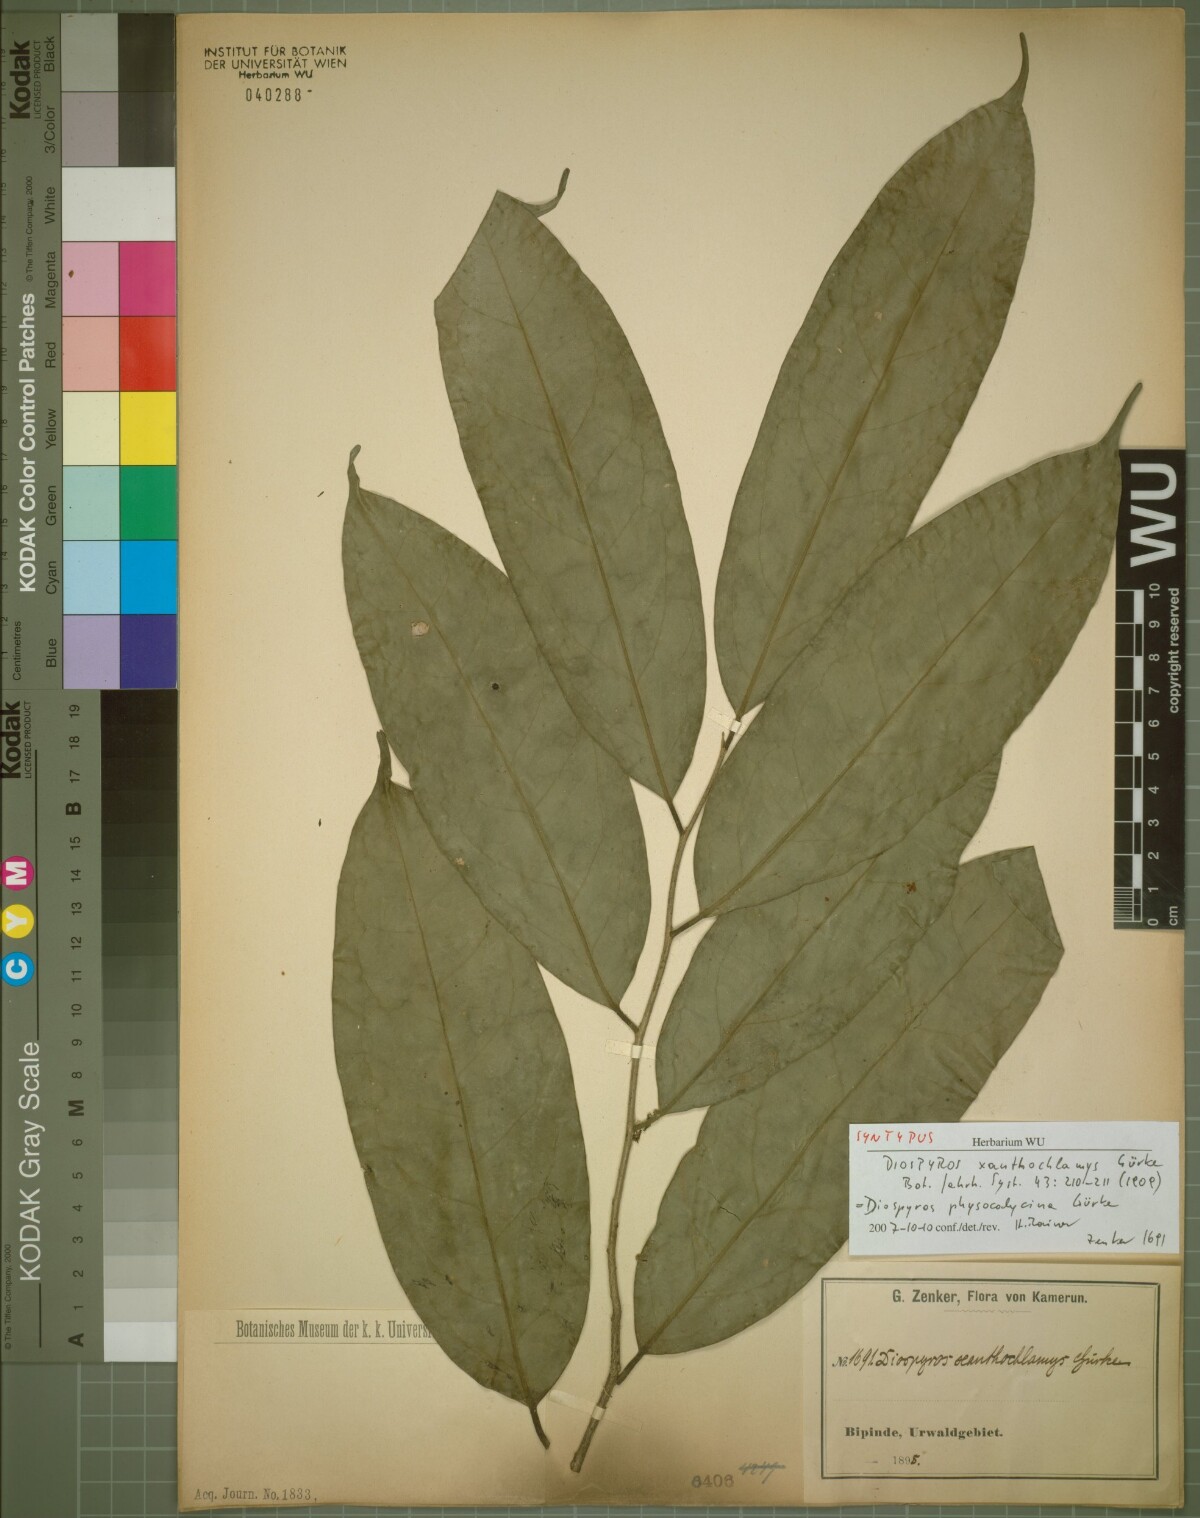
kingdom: Plantae
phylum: Tracheophyta
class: Magnoliopsida
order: Ericales
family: Ebenaceae
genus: Diospyros
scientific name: Diospyros physocalycina
